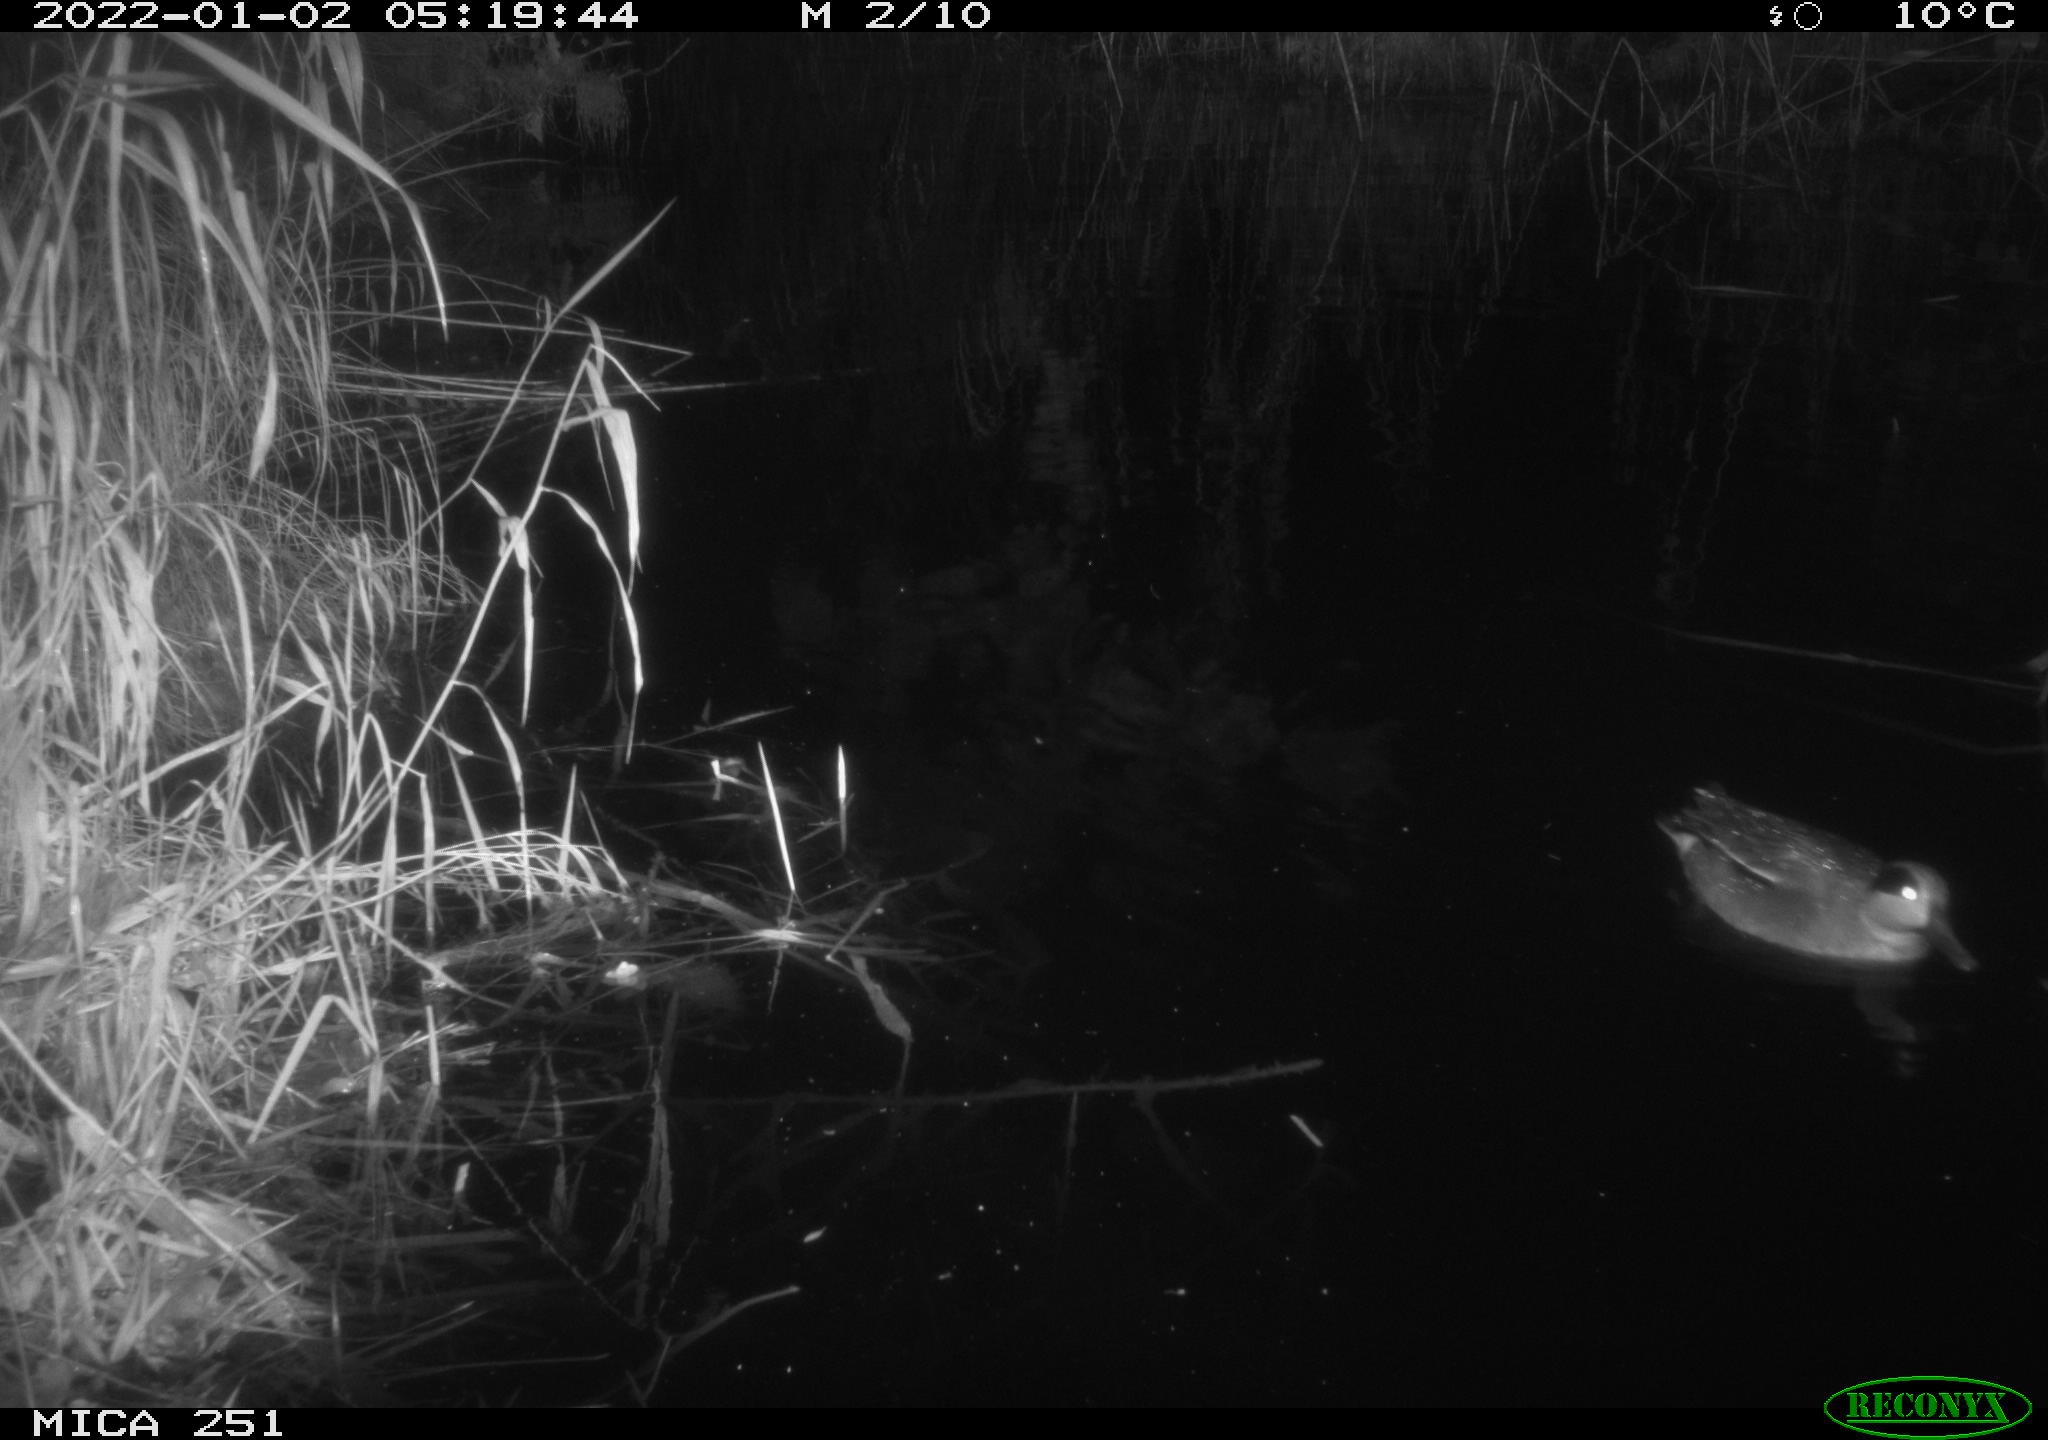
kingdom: Animalia
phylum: Chordata
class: Aves
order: Anseriformes
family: Anatidae
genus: Anas
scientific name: Anas crecca
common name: Eurasian teal
